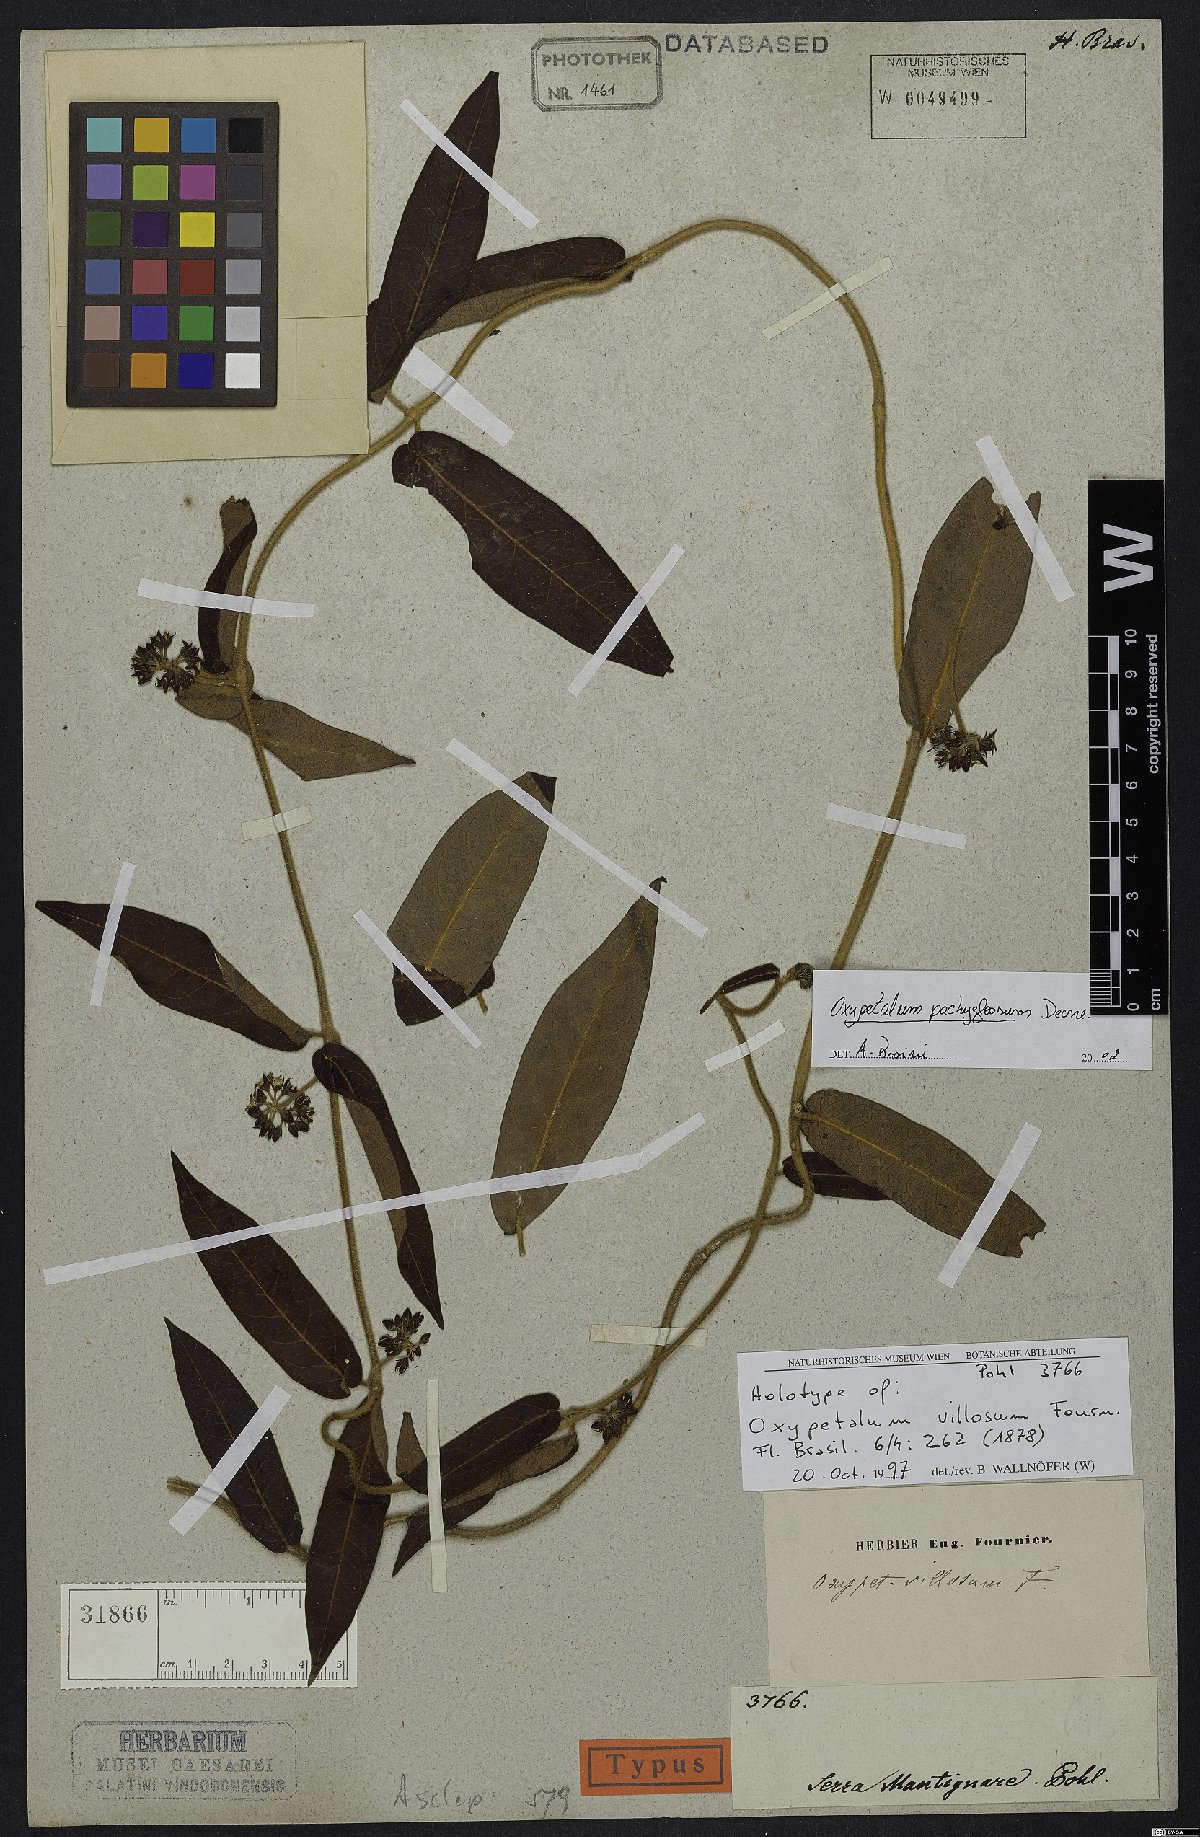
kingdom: Plantae
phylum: Tracheophyta
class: Magnoliopsida
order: Gentianales
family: Apocynaceae
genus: Oxypetalum
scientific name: Oxypetalum pachyglossum
